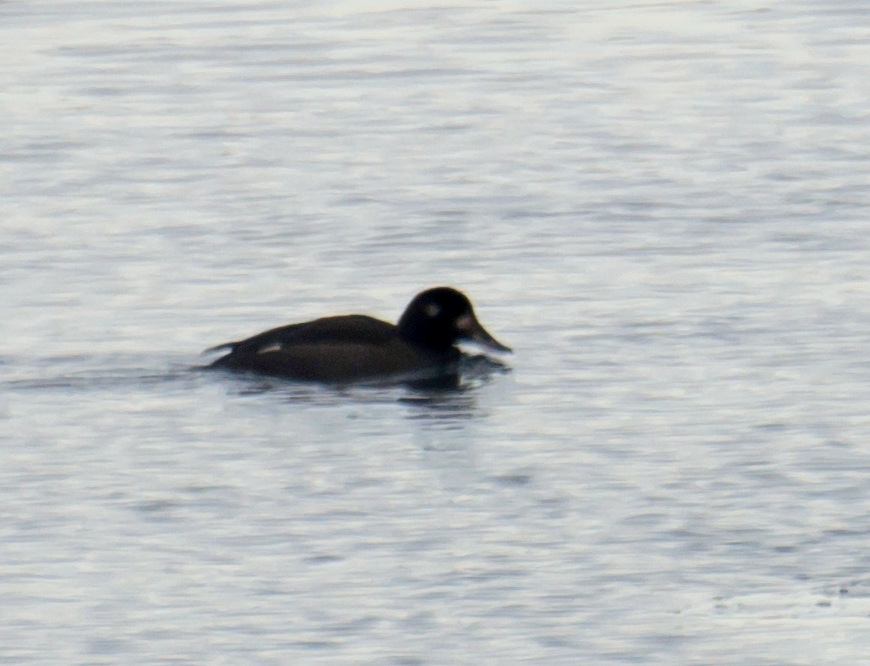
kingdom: Animalia
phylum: Chordata
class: Aves
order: Anseriformes
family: Anatidae
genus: Melanitta
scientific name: Melanitta fusca
